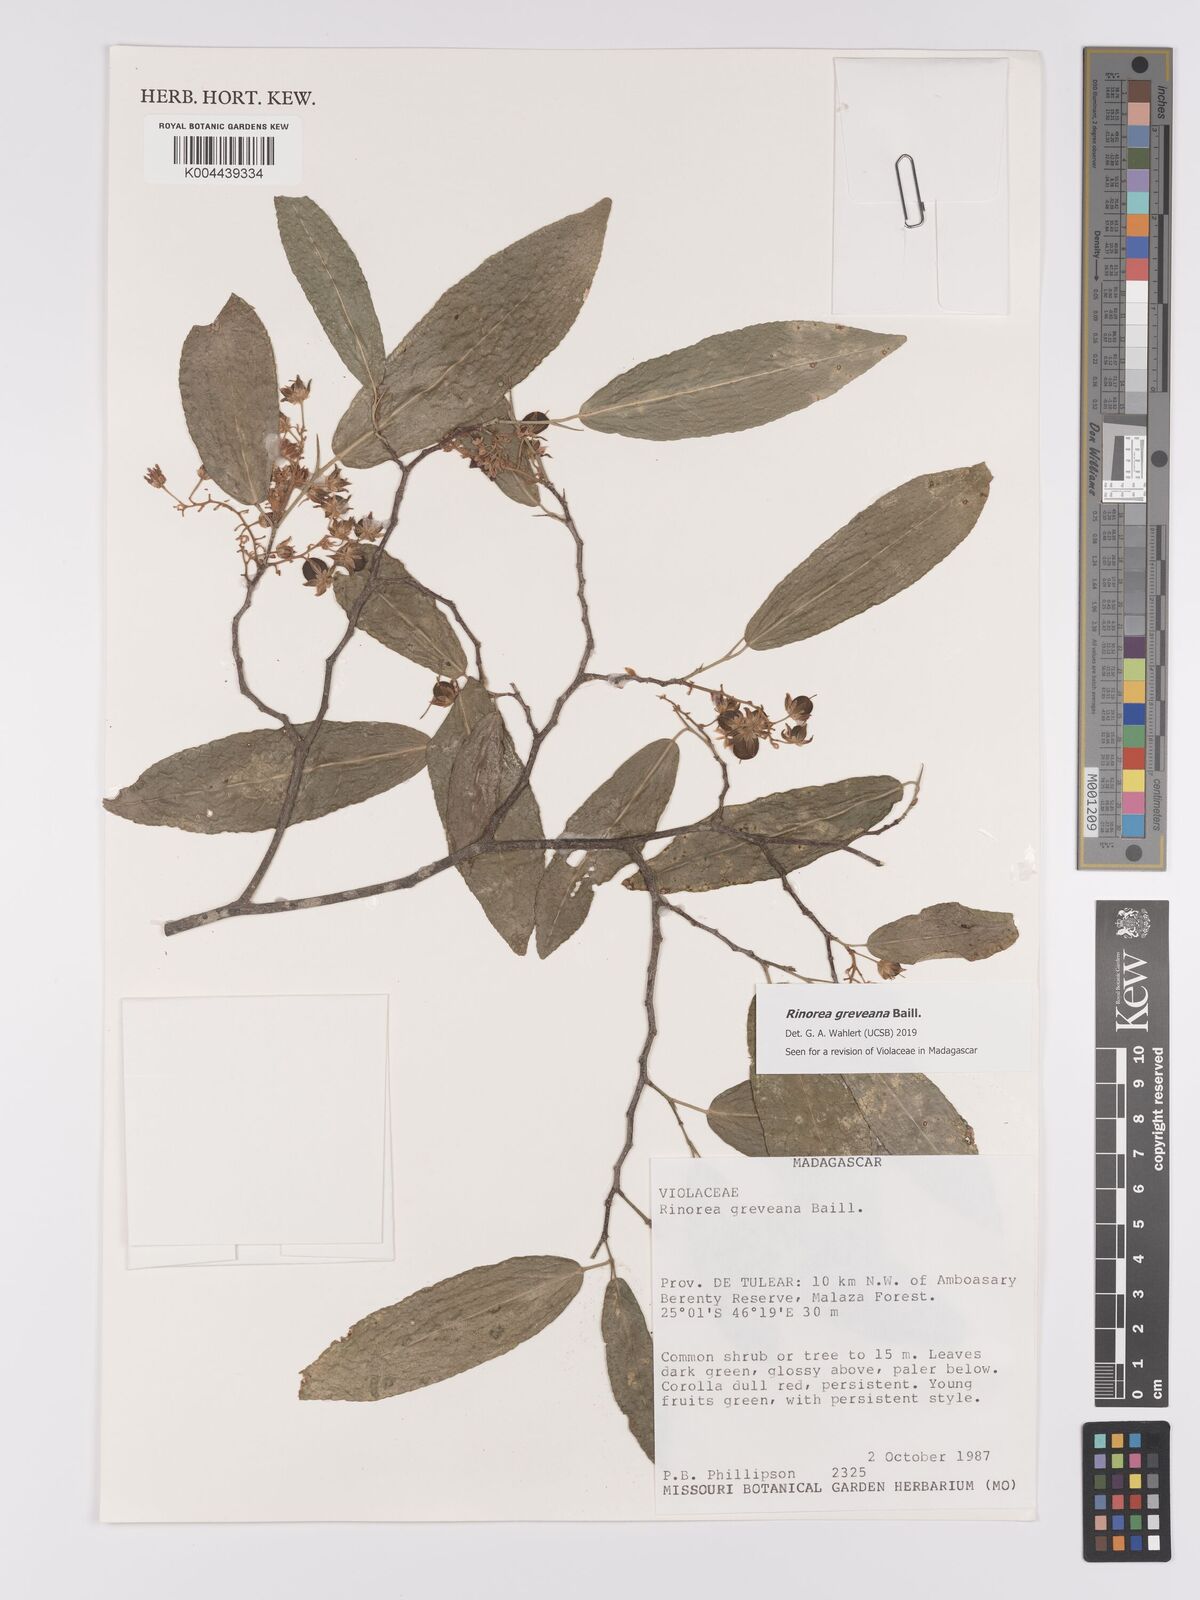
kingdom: Plantae
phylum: Tracheophyta
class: Magnoliopsida
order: Malpighiales
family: Violaceae
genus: Rinorea
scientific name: Rinorea greveana
